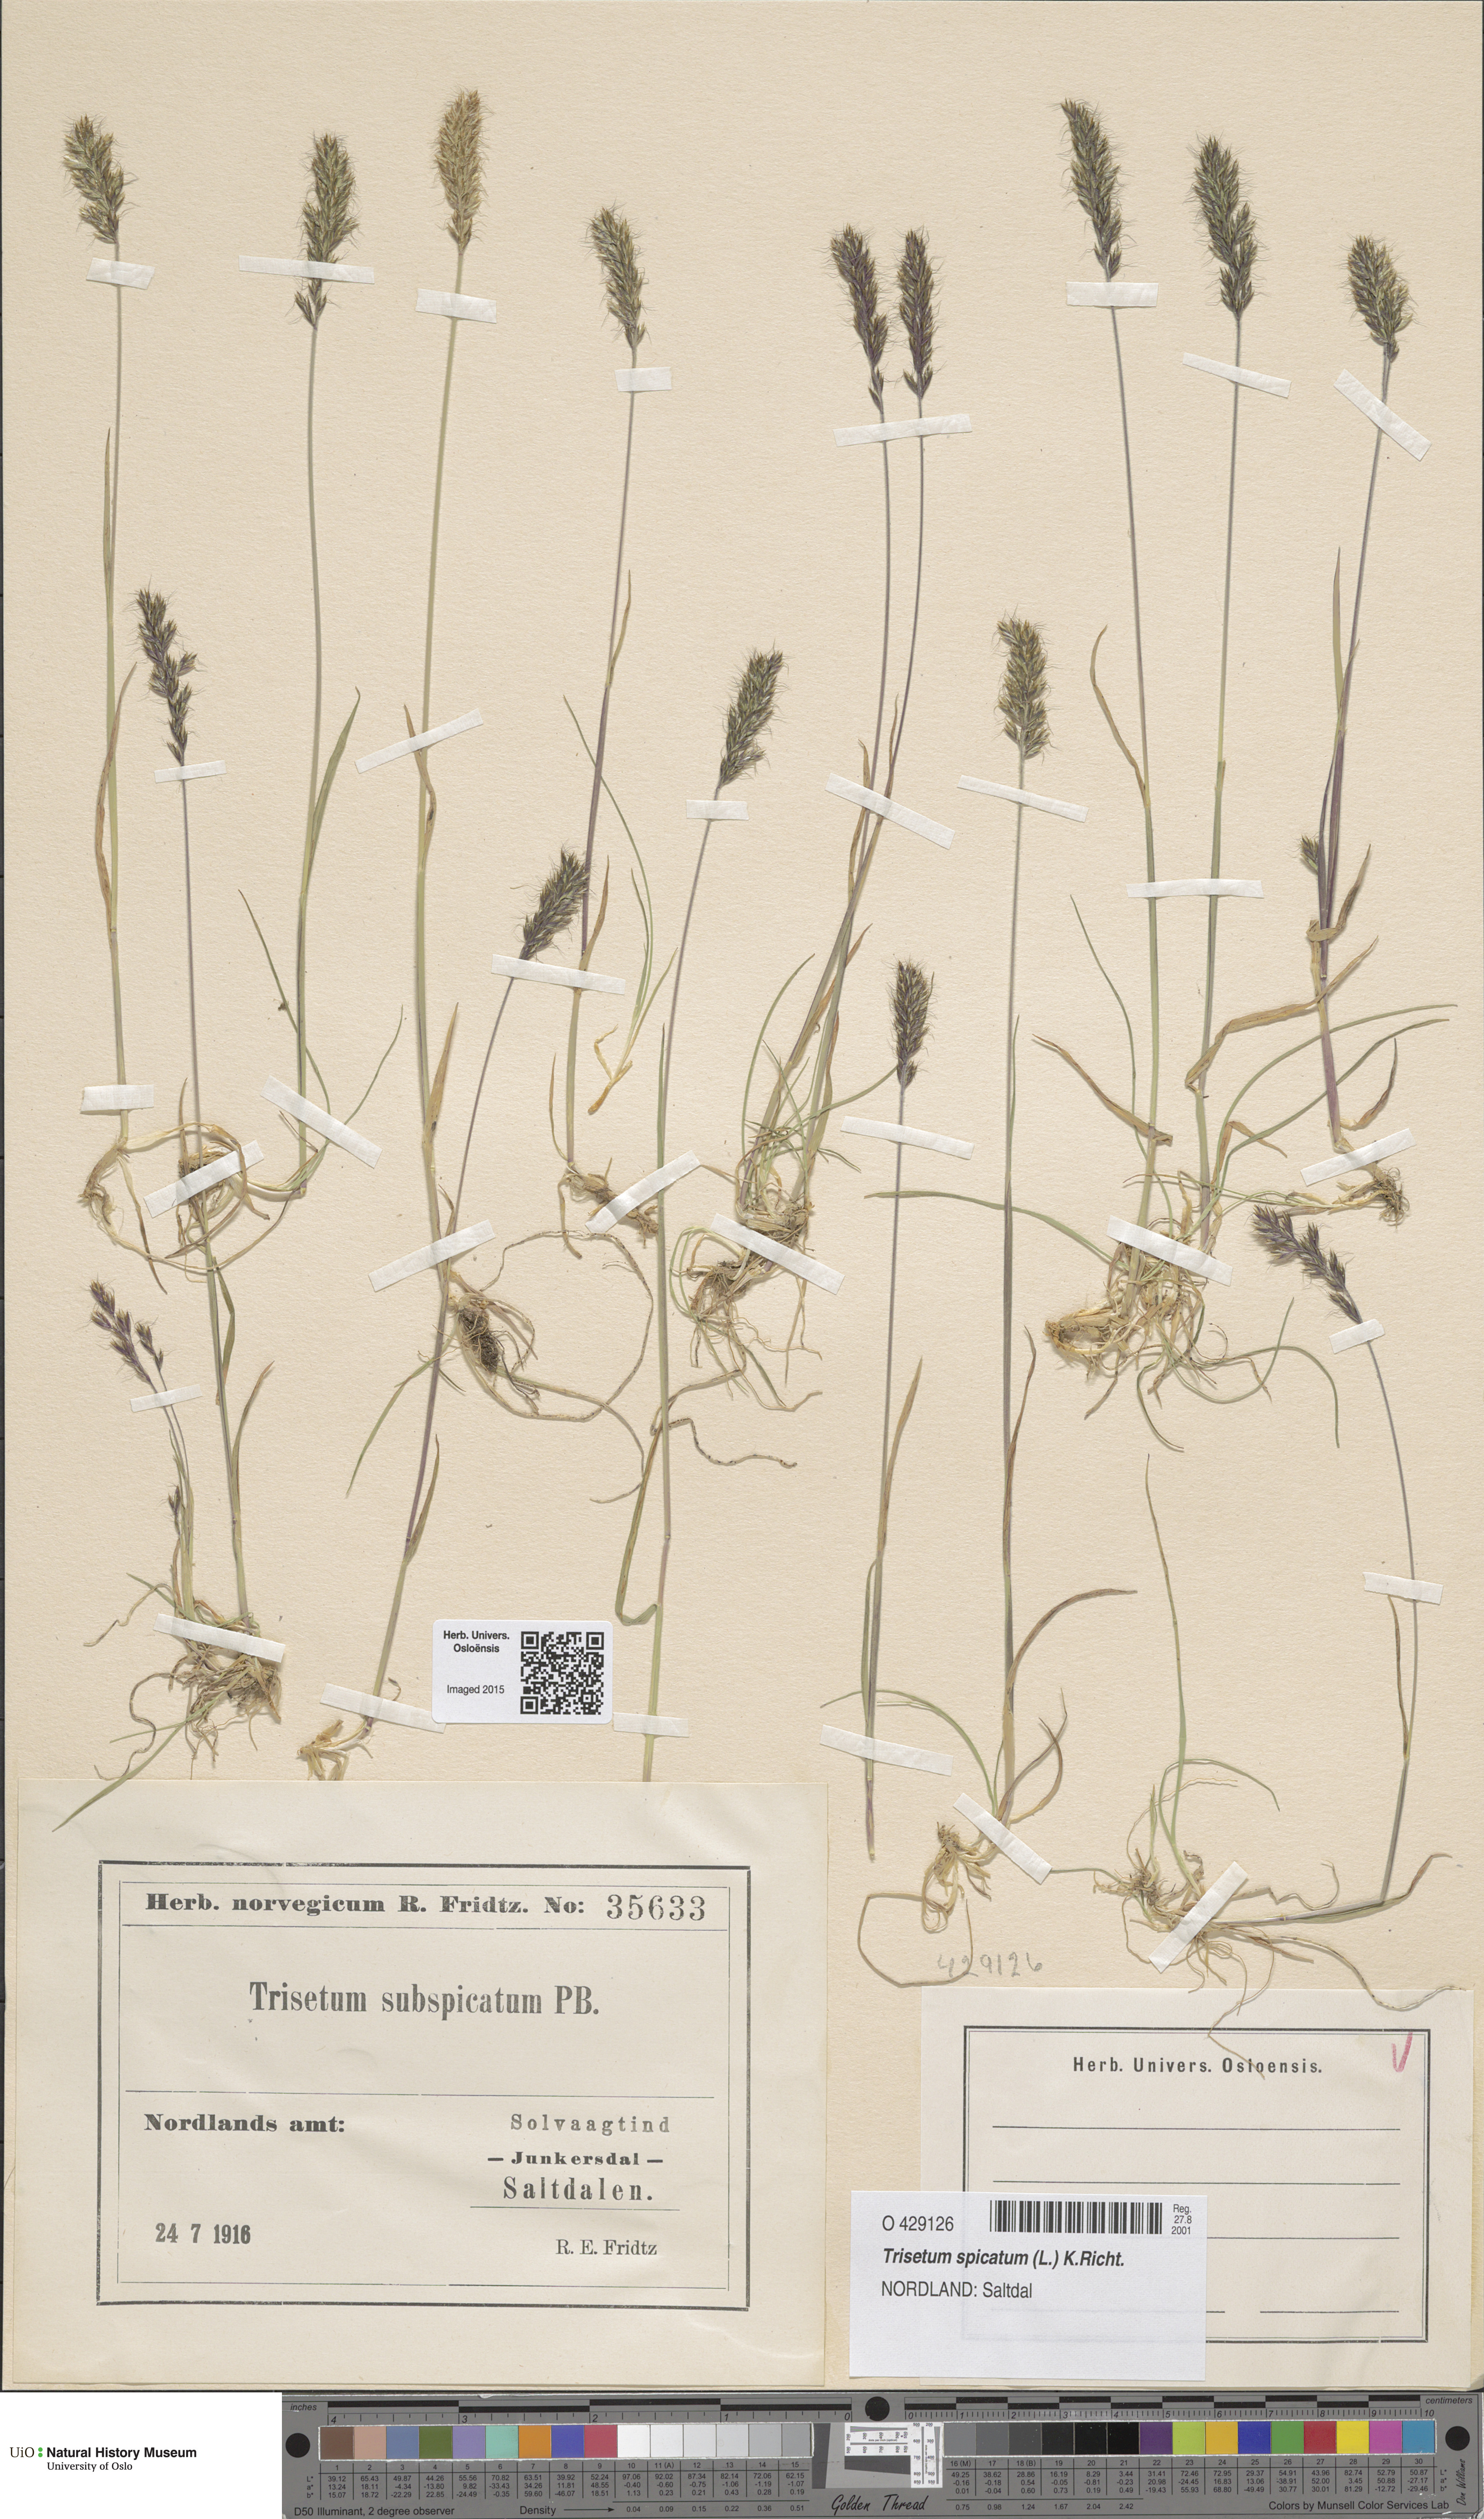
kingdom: Plantae
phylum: Tracheophyta
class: Liliopsida
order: Poales
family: Poaceae
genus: Koeleria
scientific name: Koeleria spicata
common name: Mountain trisetum
